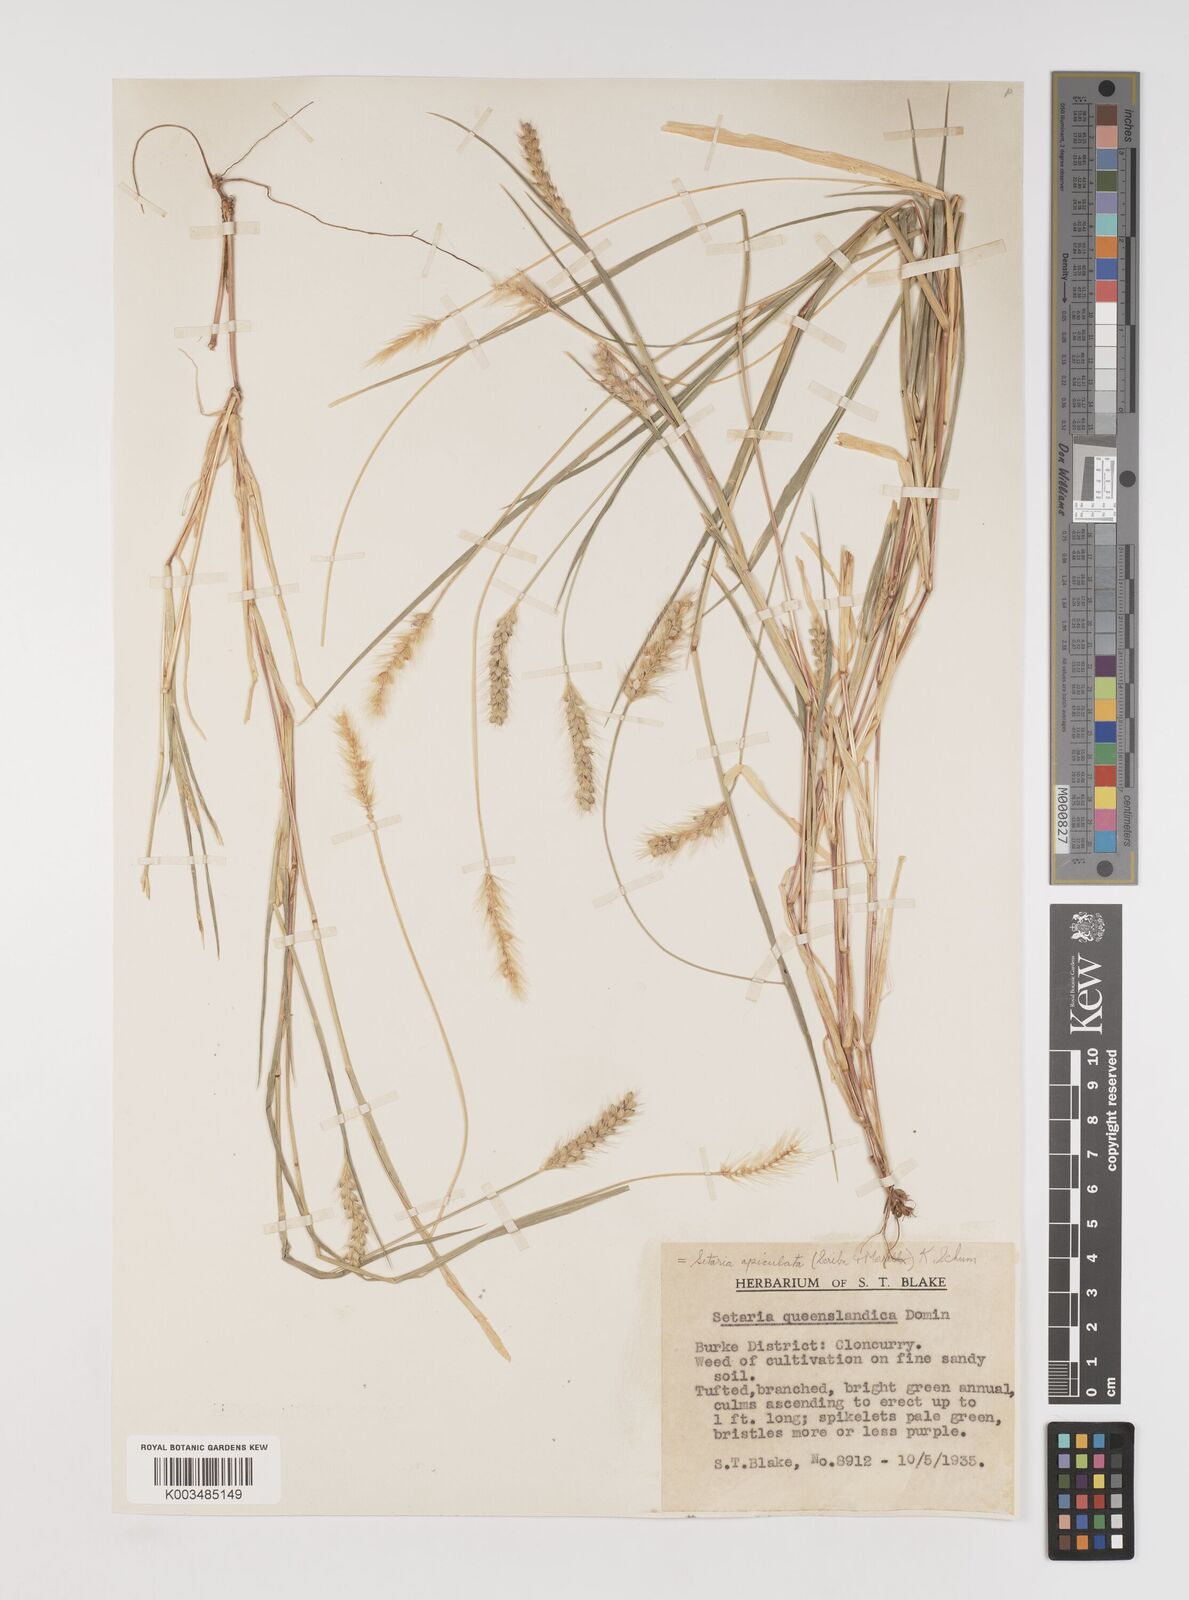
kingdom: Plantae
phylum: Tracheophyta
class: Liliopsida
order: Poales
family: Poaceae
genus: Setaria
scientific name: Setaria apiculata
